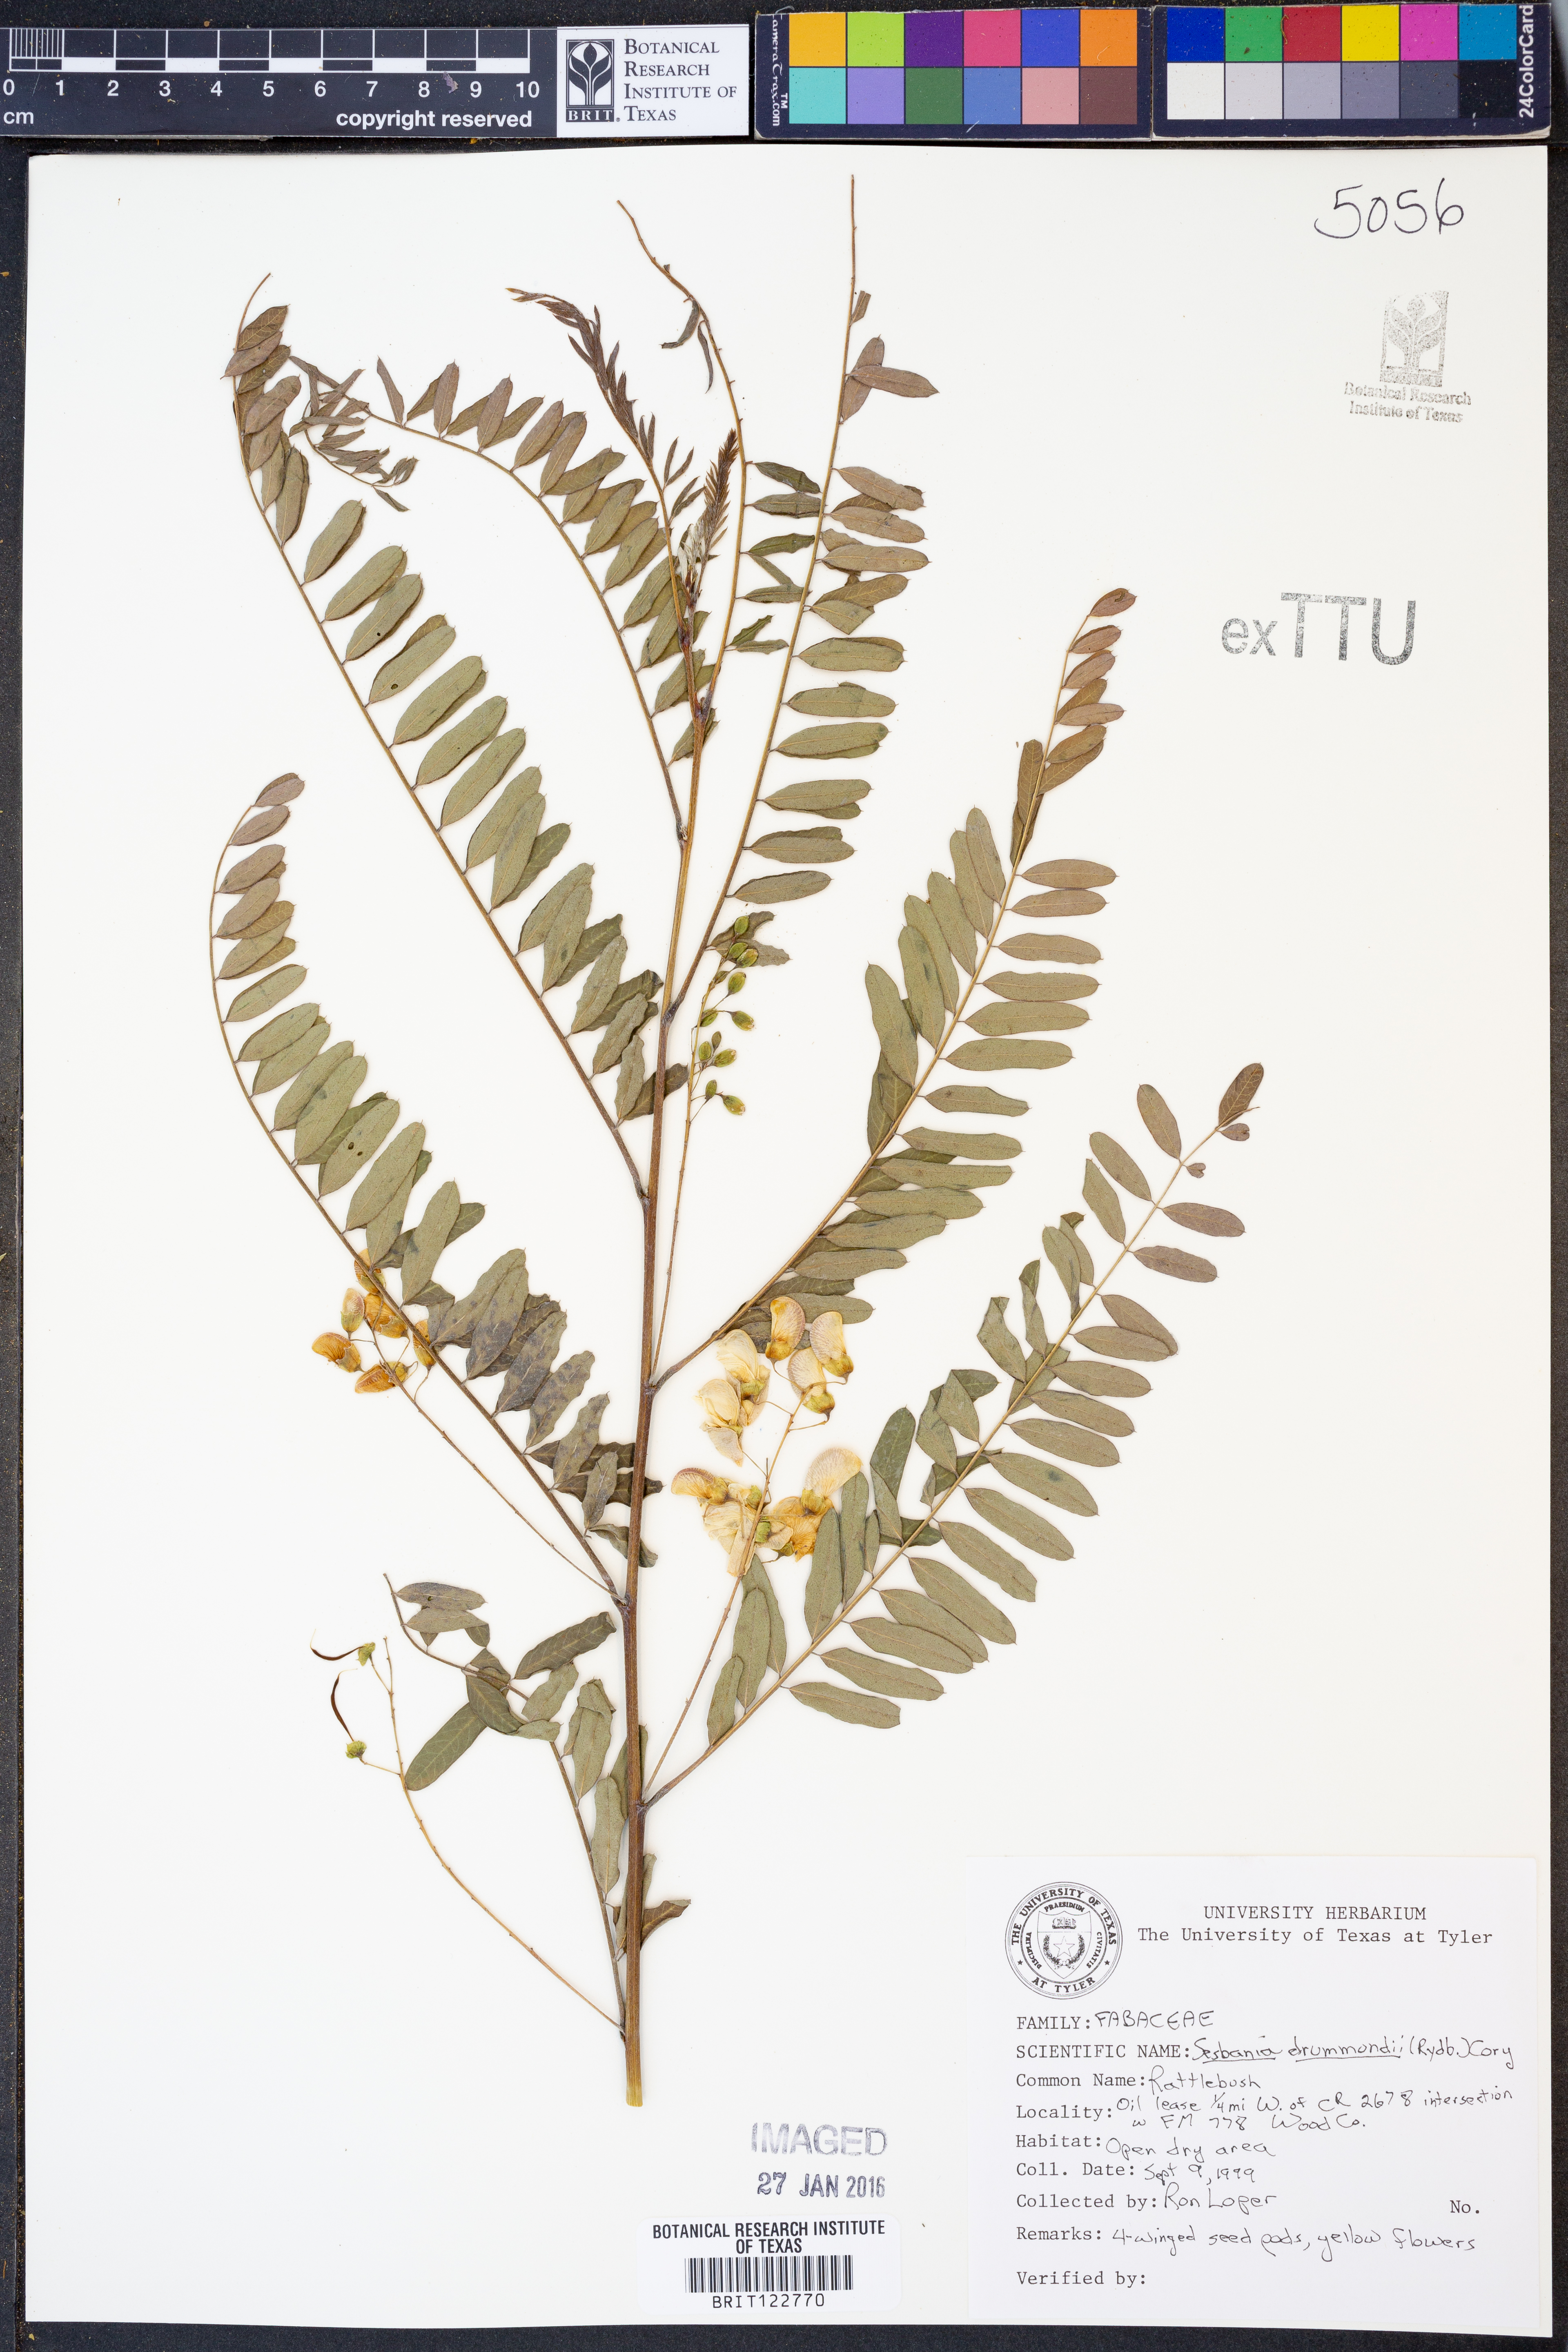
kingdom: Plantae
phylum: Tracheophyta
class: Magnoliopsida
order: Fabales
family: Fabaceae
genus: Sesbania
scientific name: Sesbania drummondii
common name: Poison-bean
